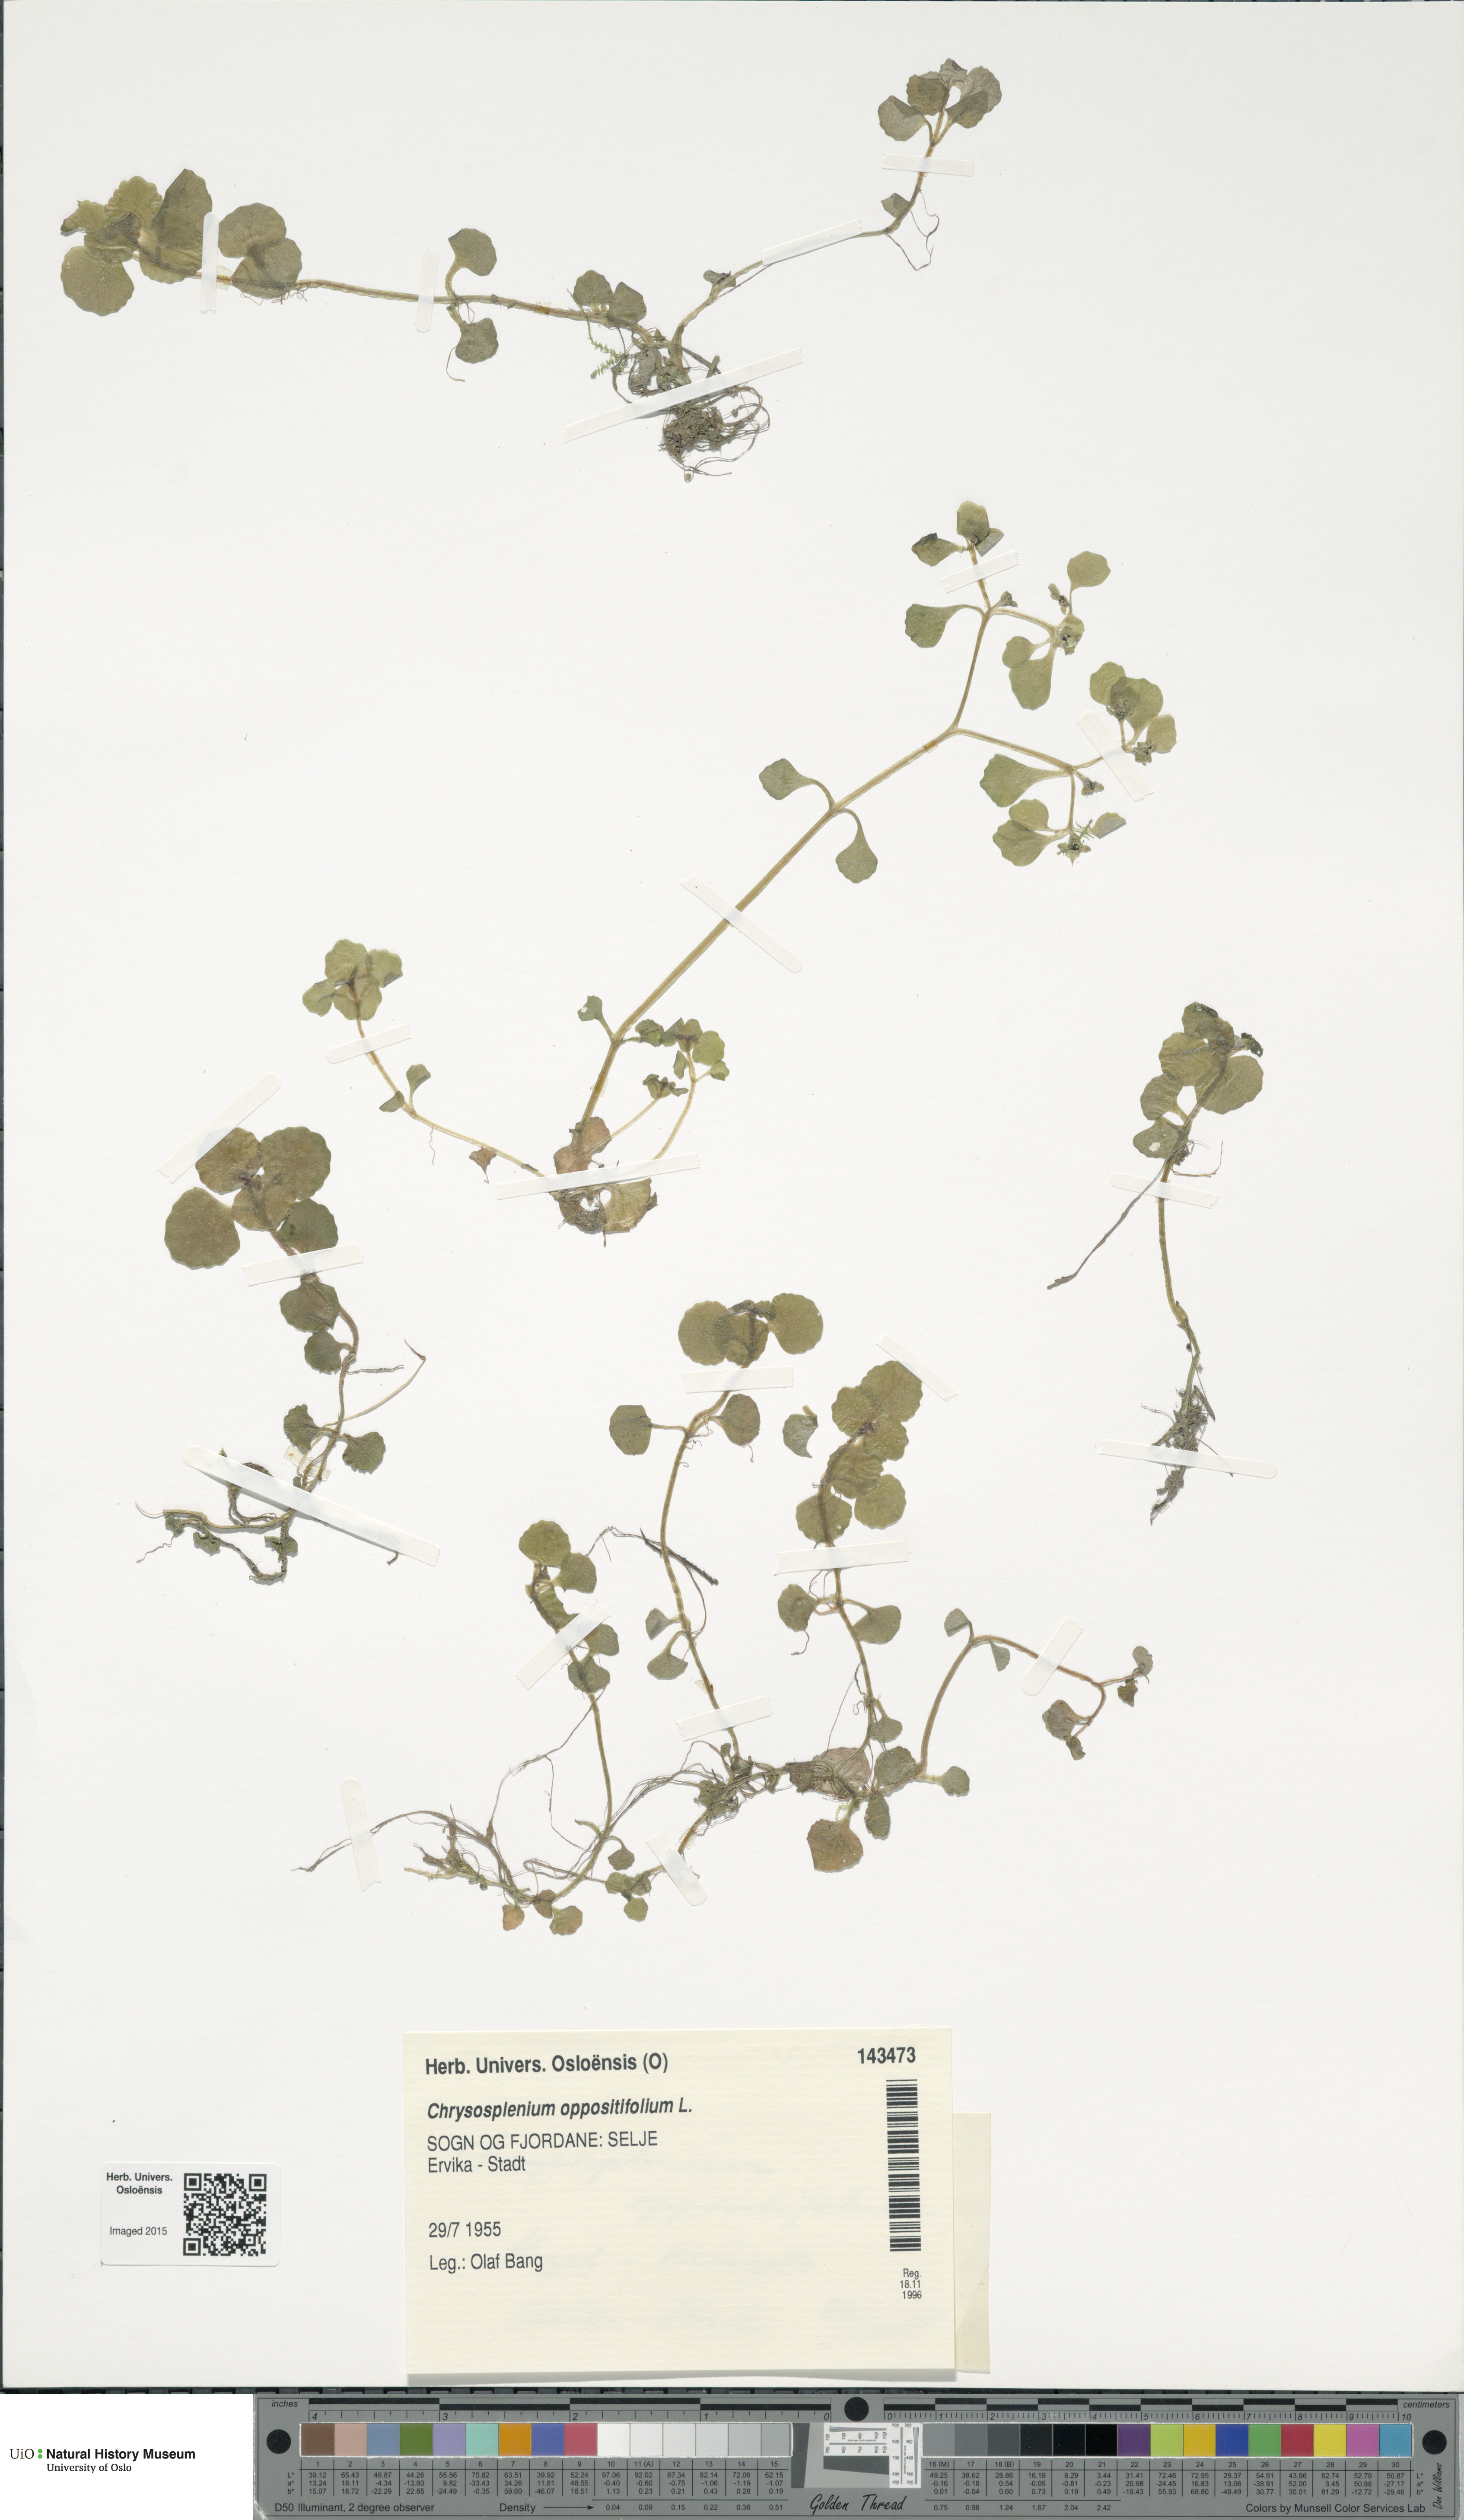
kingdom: Plantae
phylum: Tracheophyta
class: Magnoliopsida
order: Saxifragales
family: Saxifragaceae
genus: Chrysosplenium
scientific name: Chrysosplenium oppositifolium
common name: Opposite-leaved golden-saxifrage
